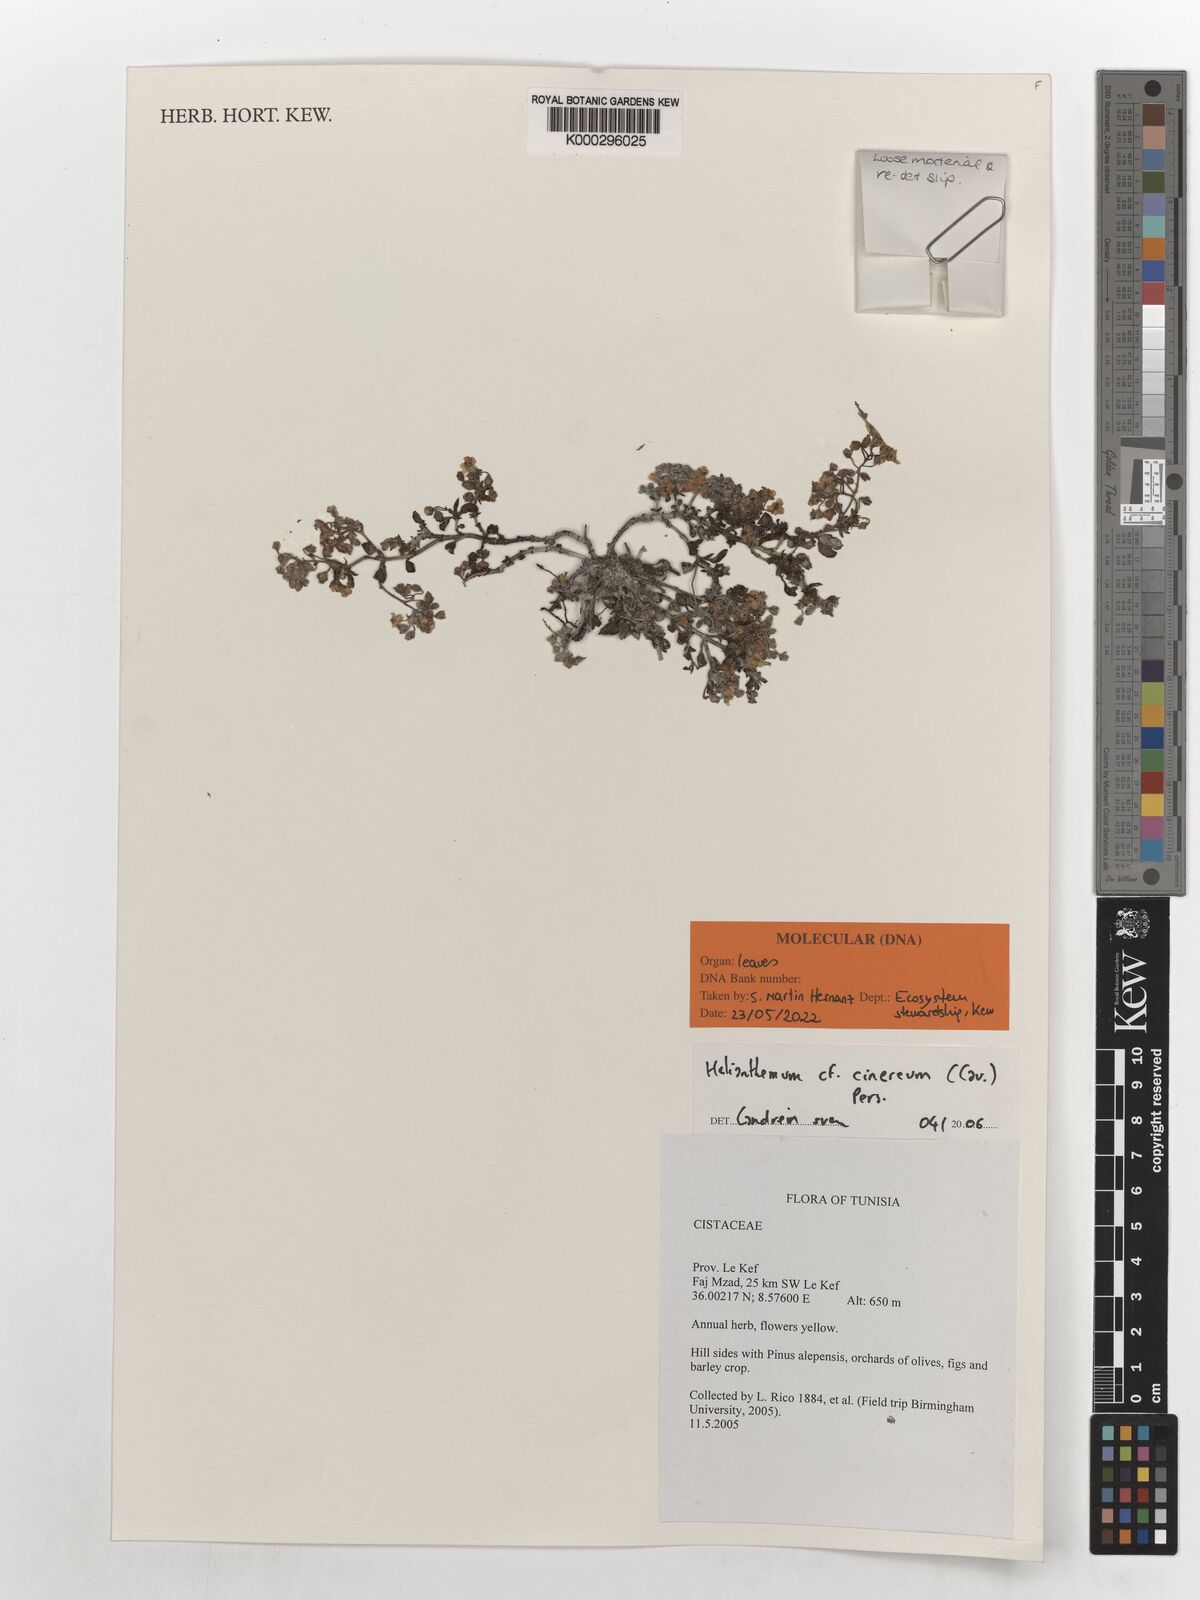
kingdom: Plantae
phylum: Tracheophyta
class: Magnoliopsida
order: Malvales
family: Cistaceae
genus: Helianthemum
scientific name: Helianthemum cinereum
